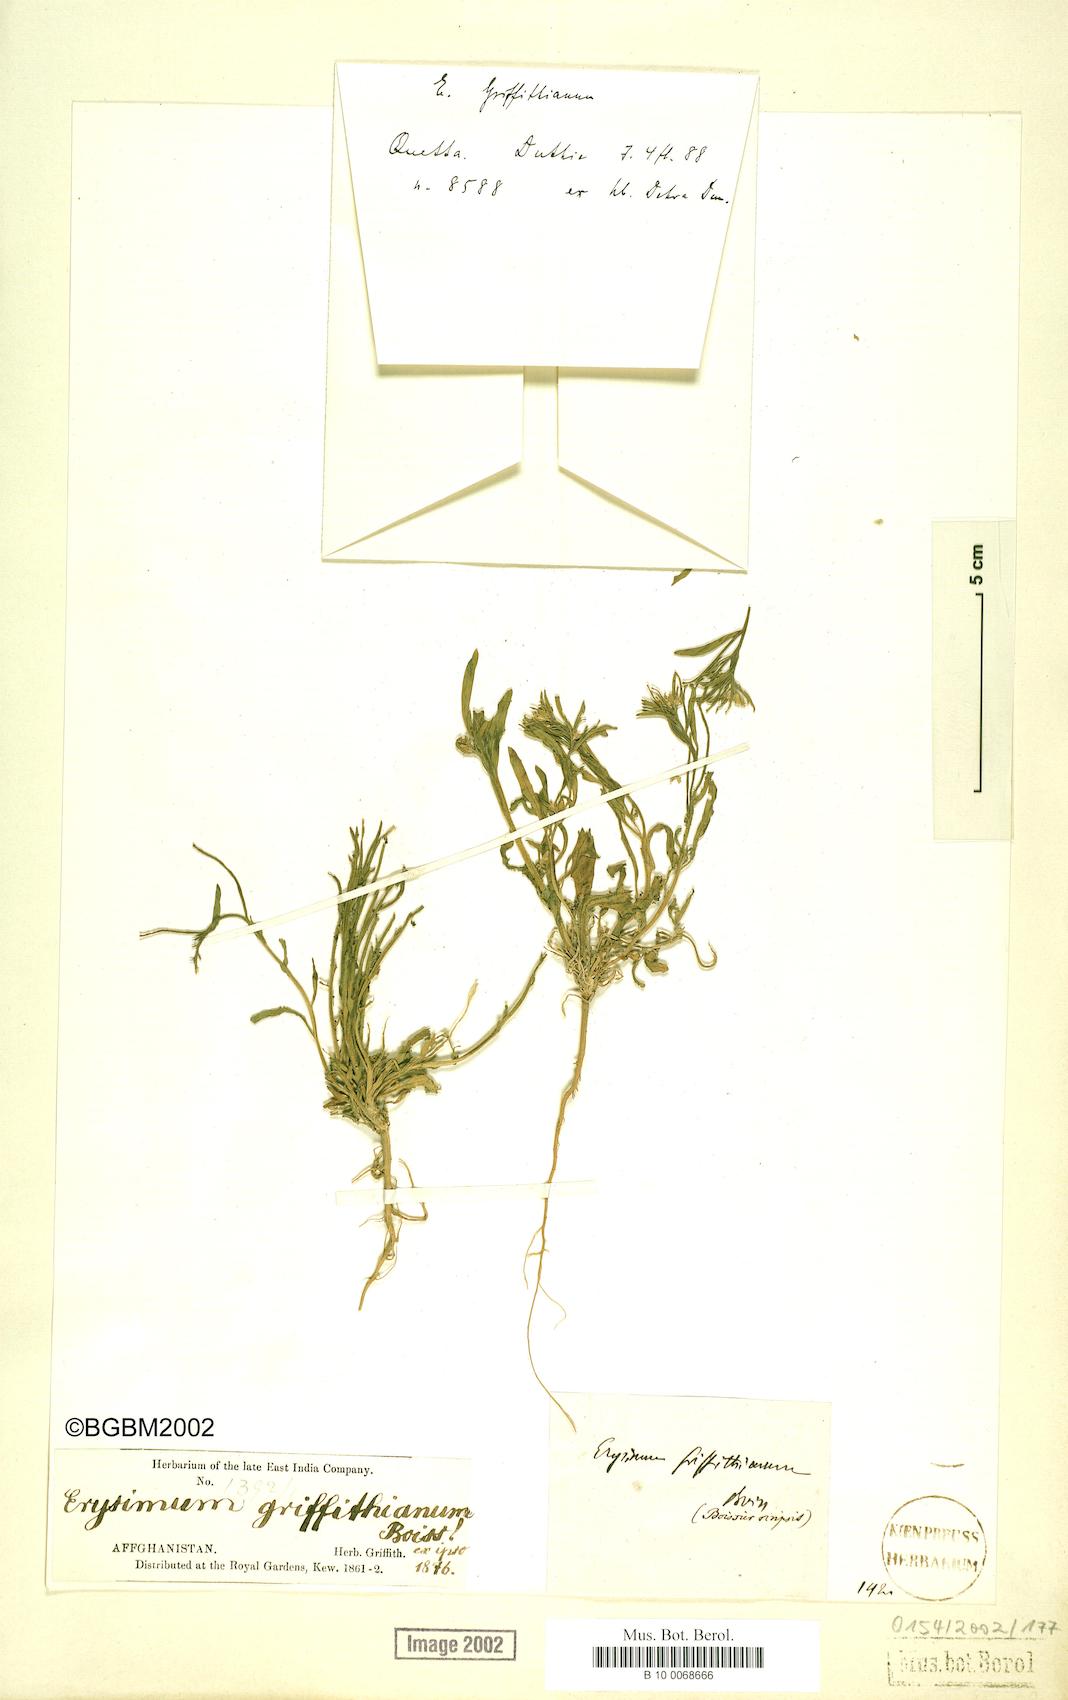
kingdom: Plantae
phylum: Tracheophyta
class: Magnoliopsida
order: Brassicales
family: Brassicaceae
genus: Erysimum
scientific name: Erysimum sisymbrioides
